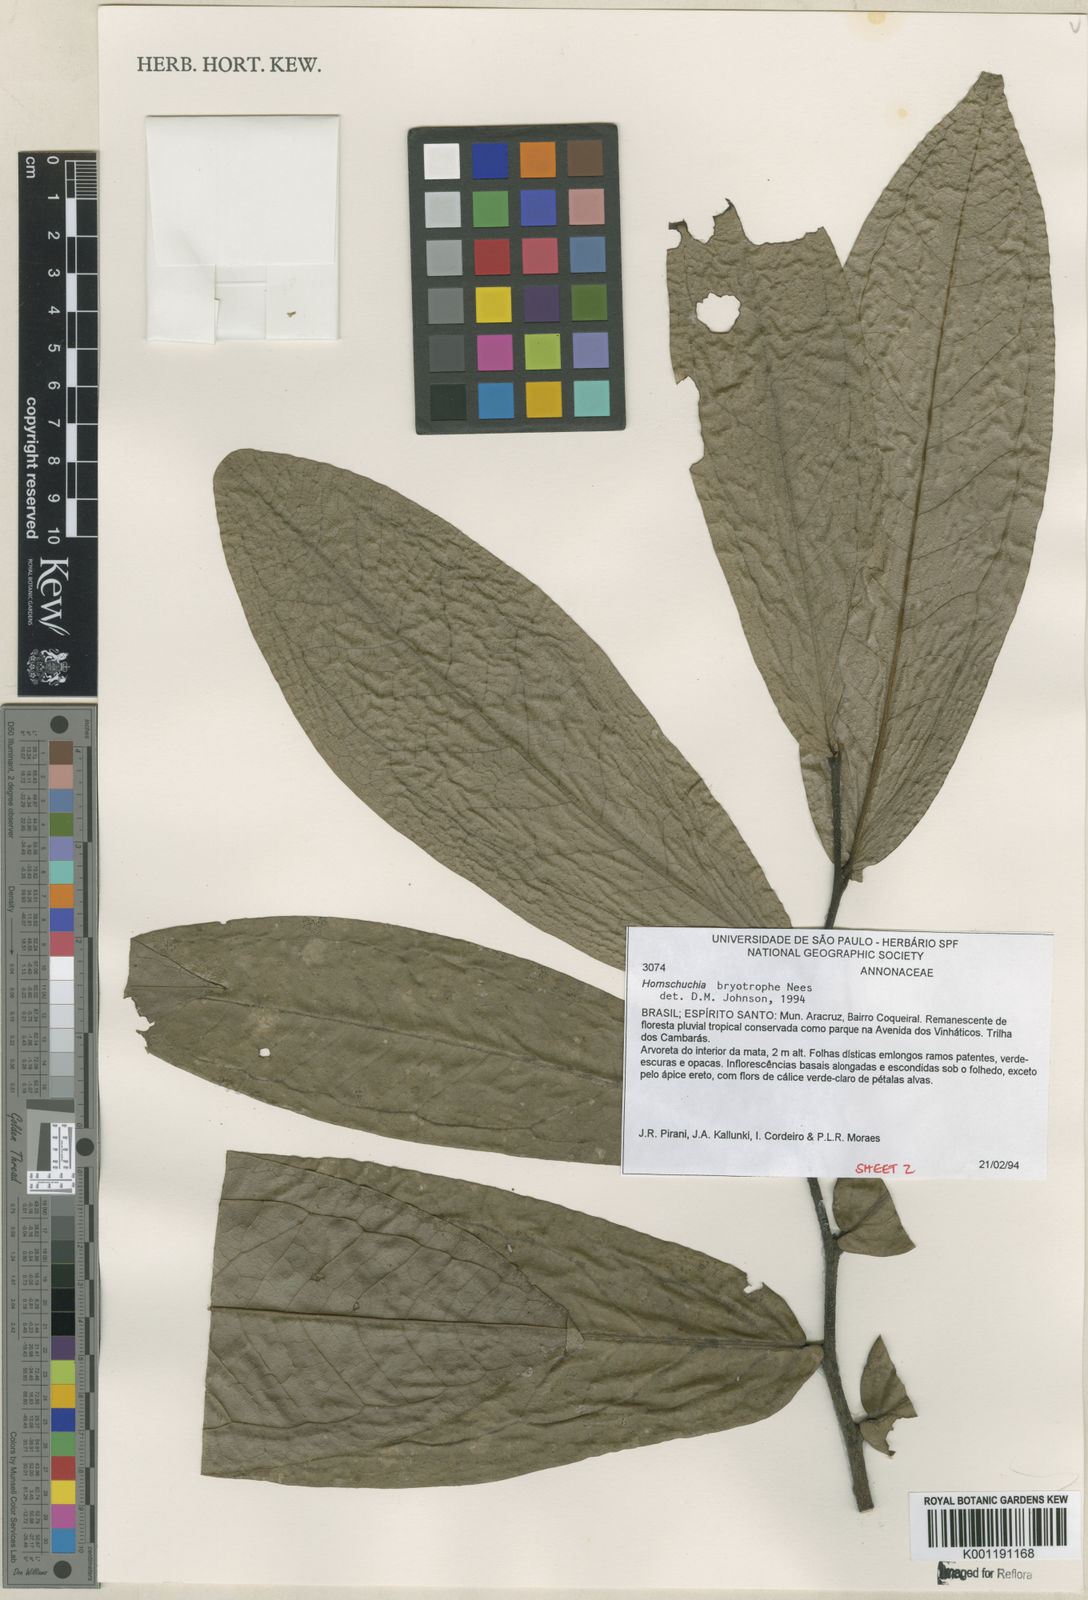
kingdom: Plantae
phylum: Tracheophyta
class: Magnoliopsida
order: Magnoliales
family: Annonaceae
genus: Hornschuchia
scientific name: Hornschuchia bryotrophe
